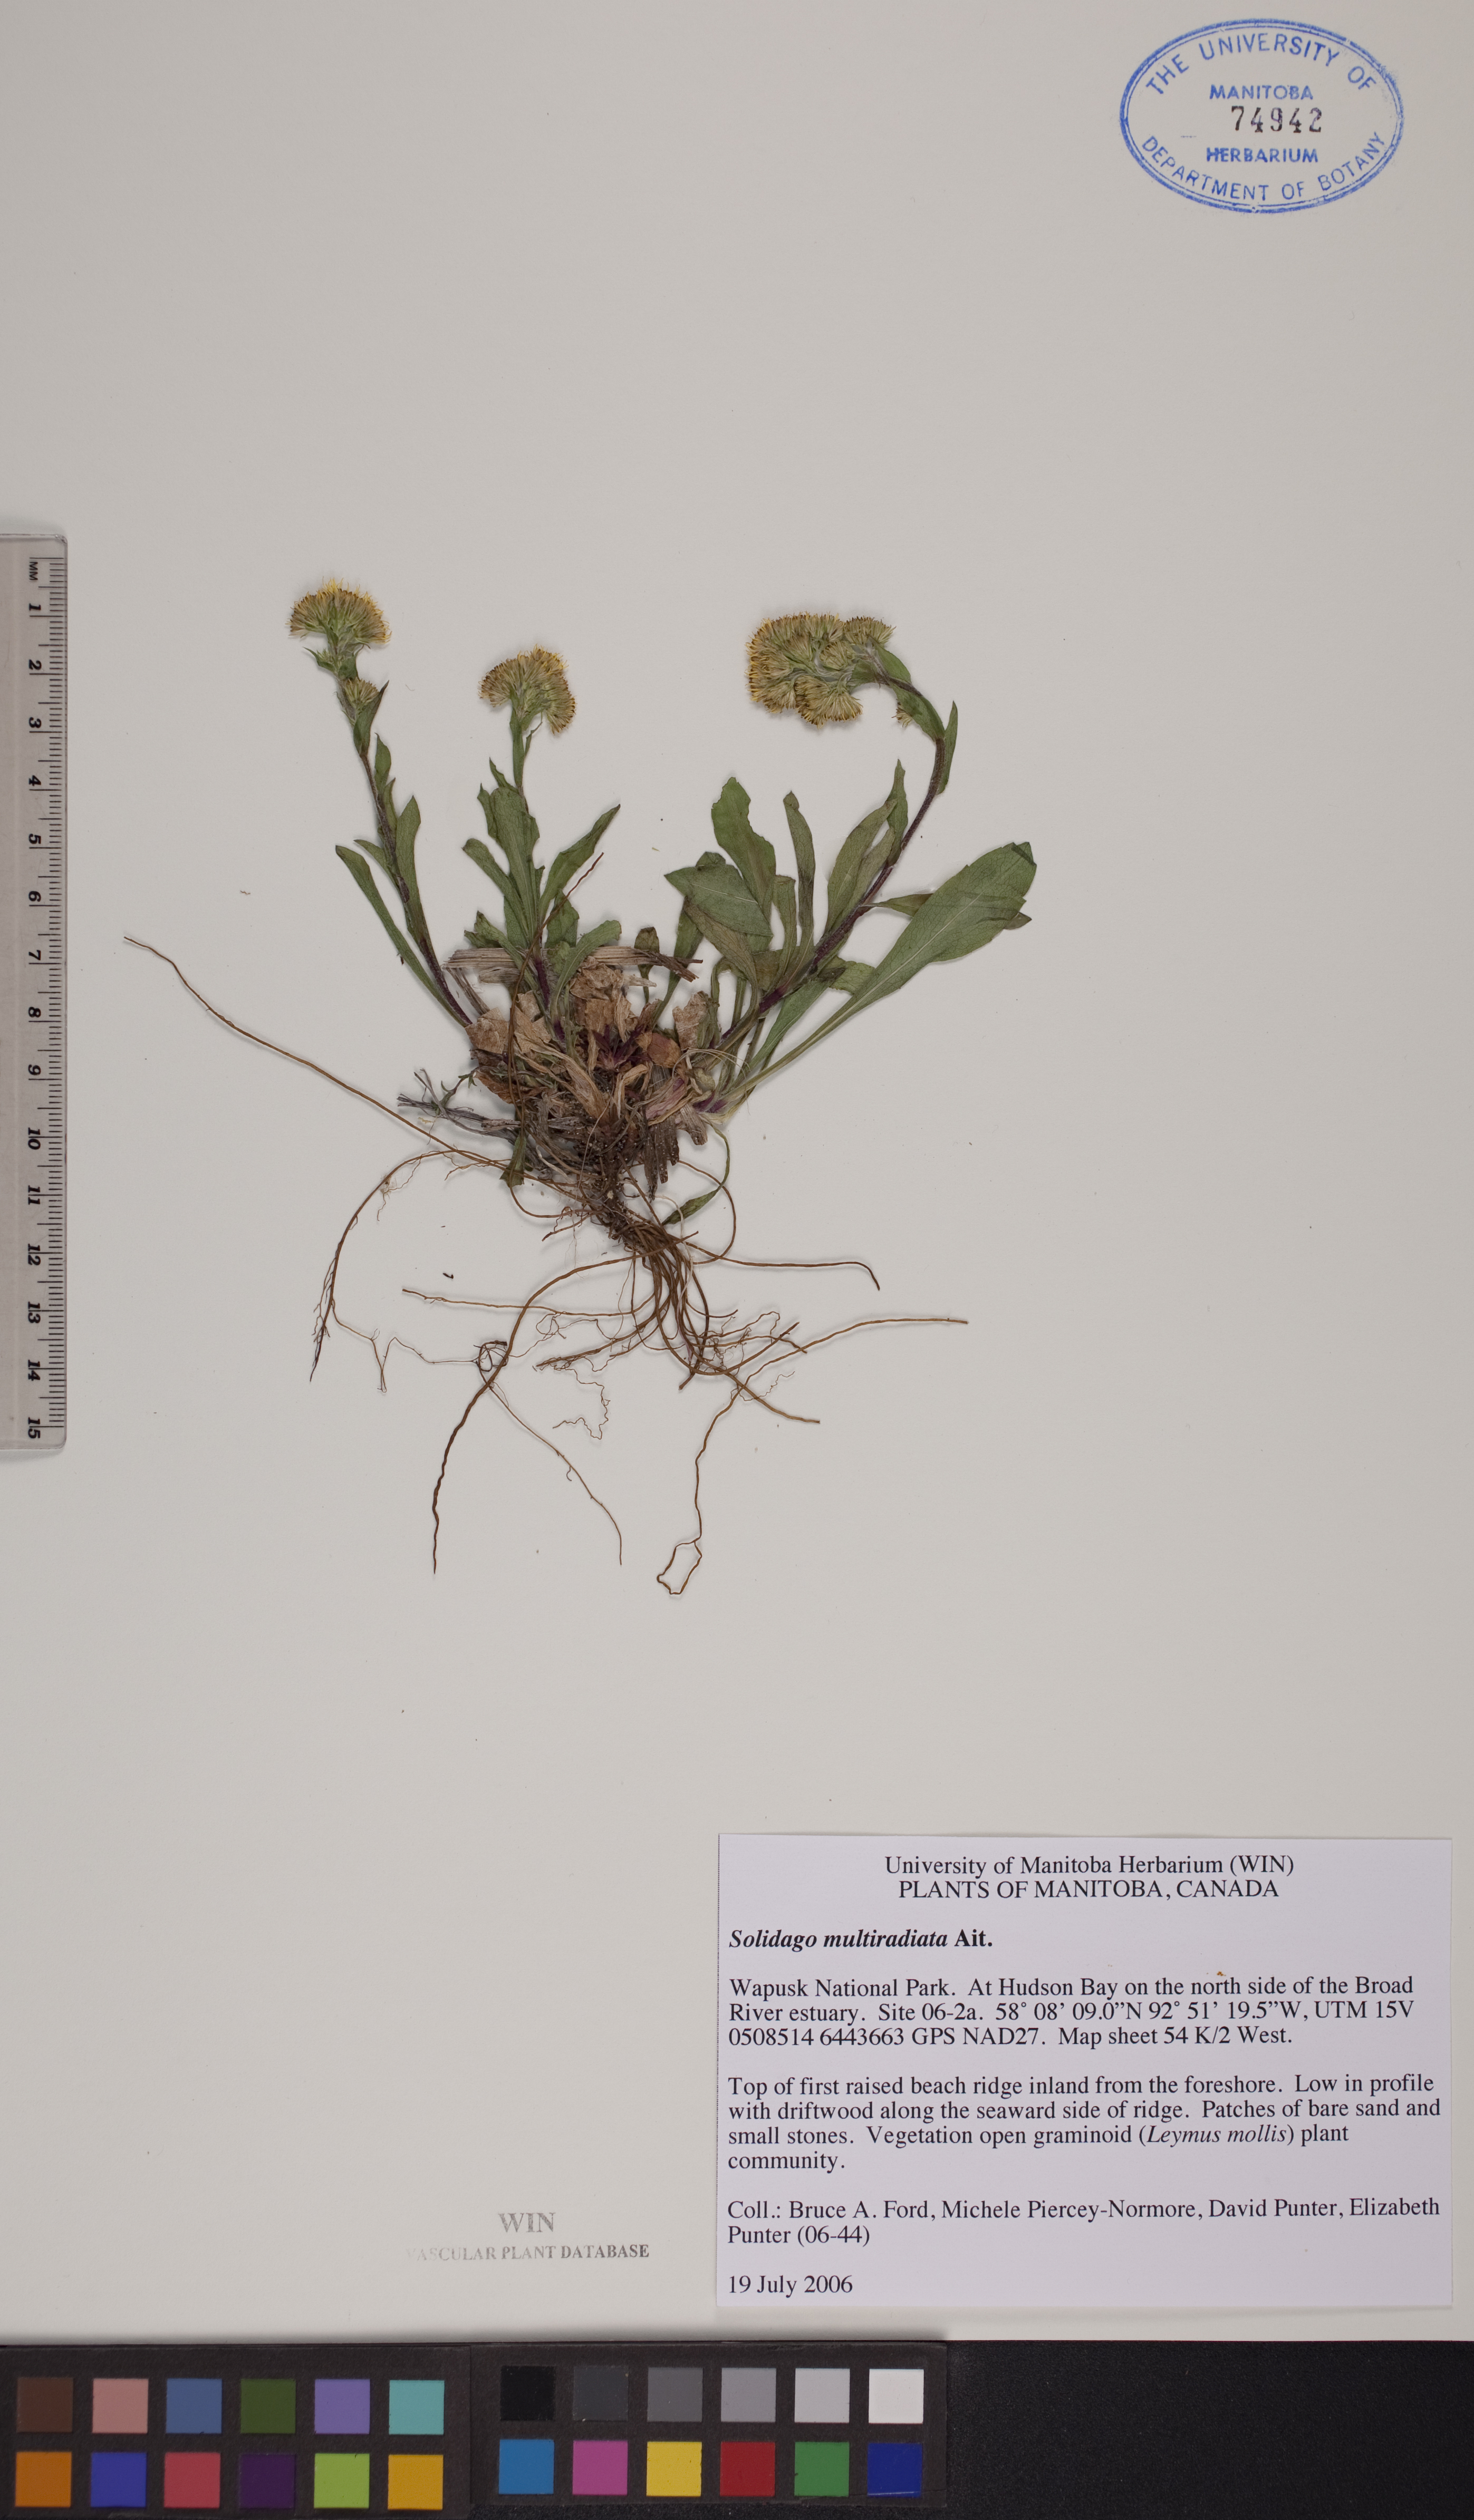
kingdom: Plantae
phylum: Tracheophyta
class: Magnoliopsida
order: Asterales
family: Asteraceae
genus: Solidago
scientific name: Solidago multiradiata
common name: Northern goldenrod
